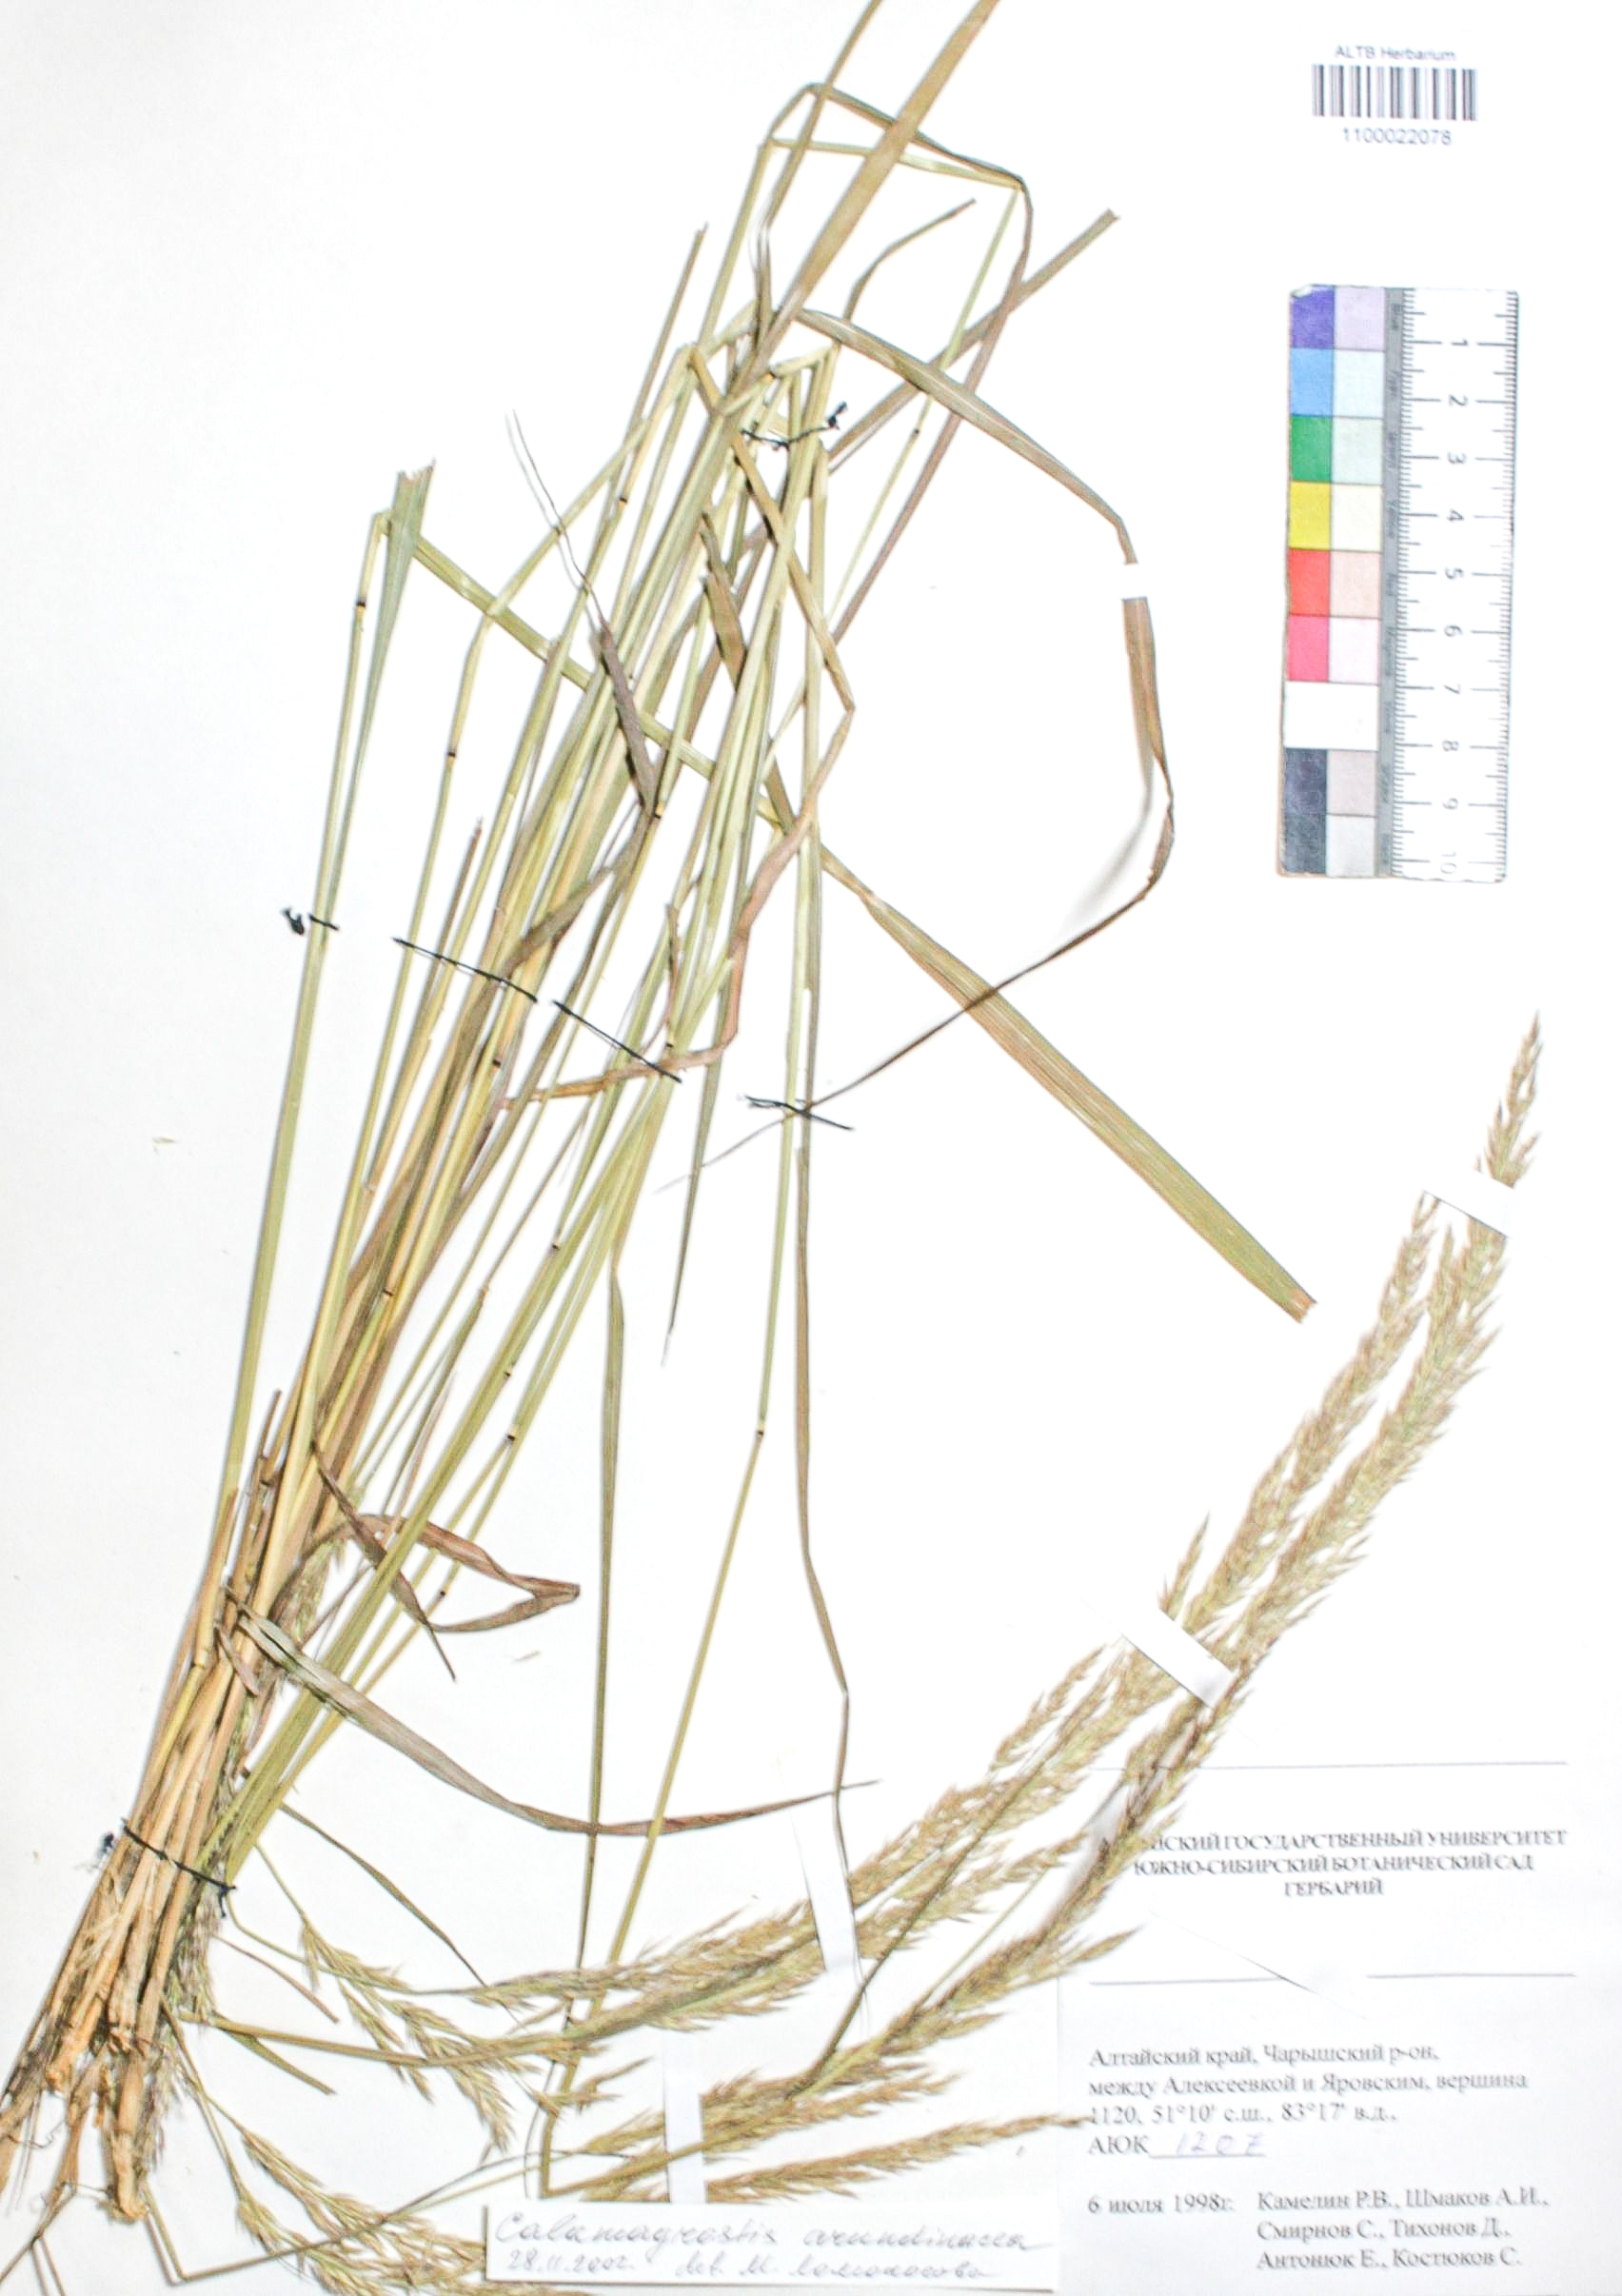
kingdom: Plantae
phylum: Tracheophyta
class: Liliopsida
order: Poales
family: Poaceae
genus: Calamagrostis
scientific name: Calamagrostis arundinacea
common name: Metskastik
